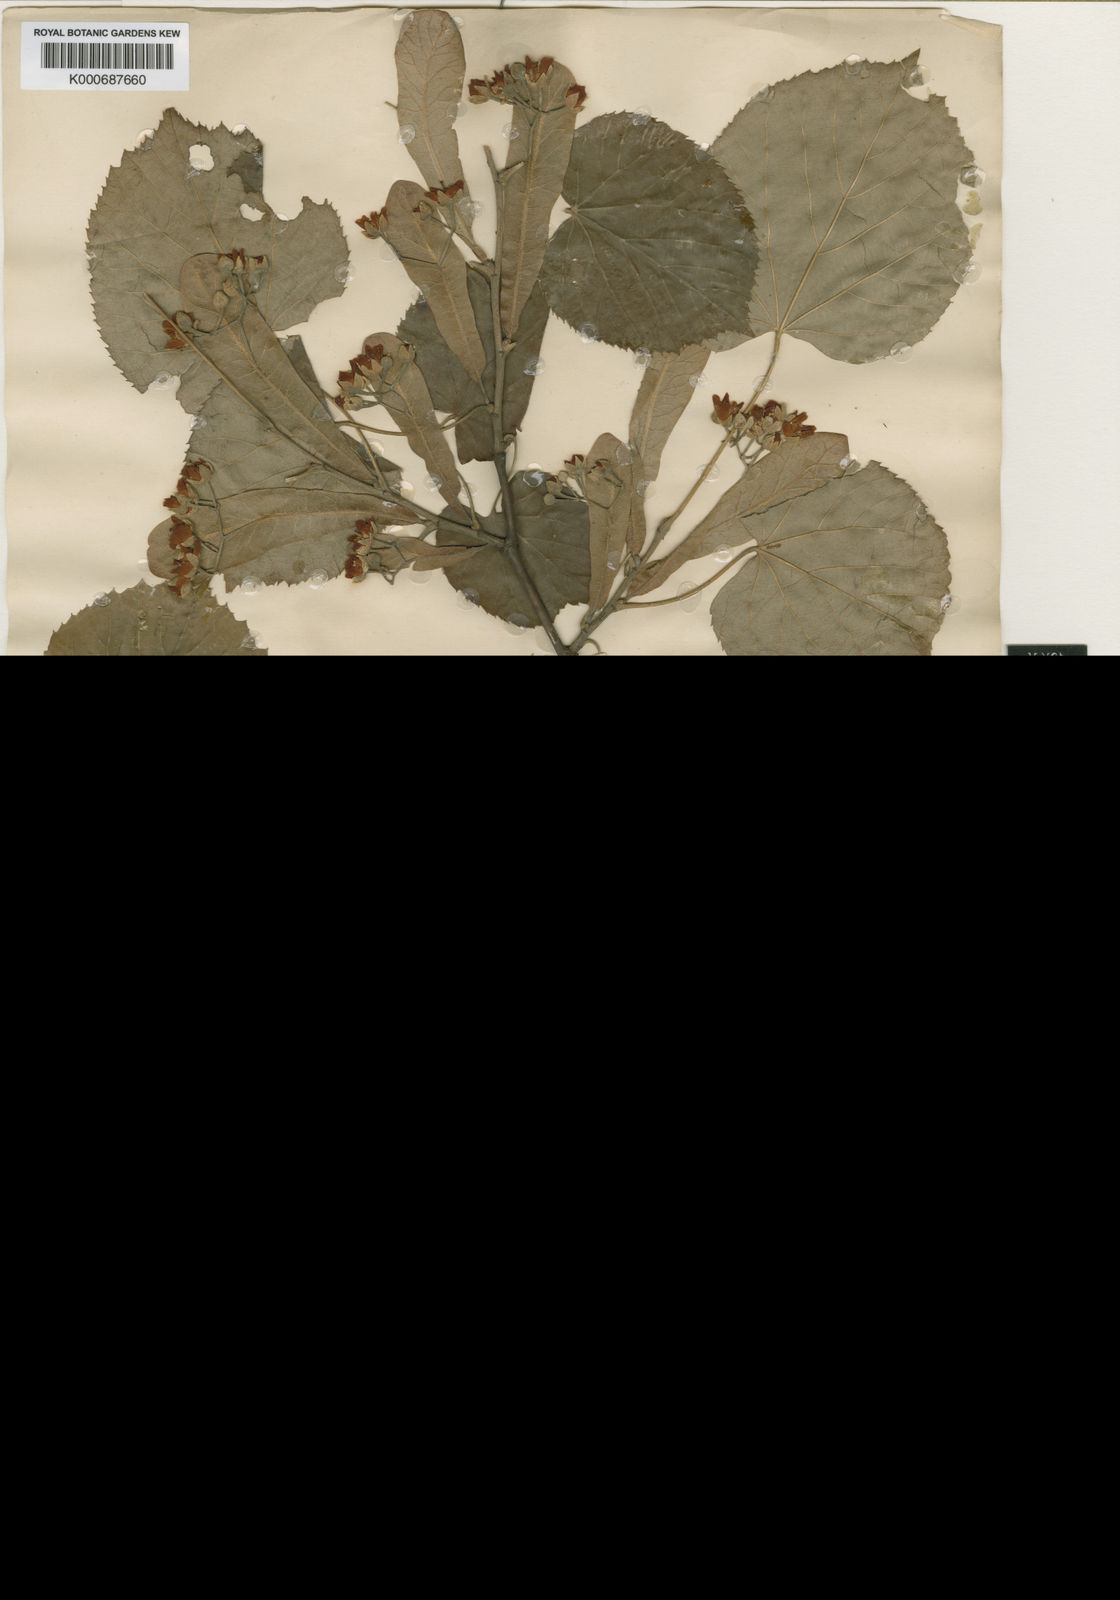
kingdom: Plantae
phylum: Tracheophyta
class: Magnoliopsida
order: Malvales
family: Malvaceae
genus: Tilia
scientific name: Tilia tomentosa
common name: Silver lime
